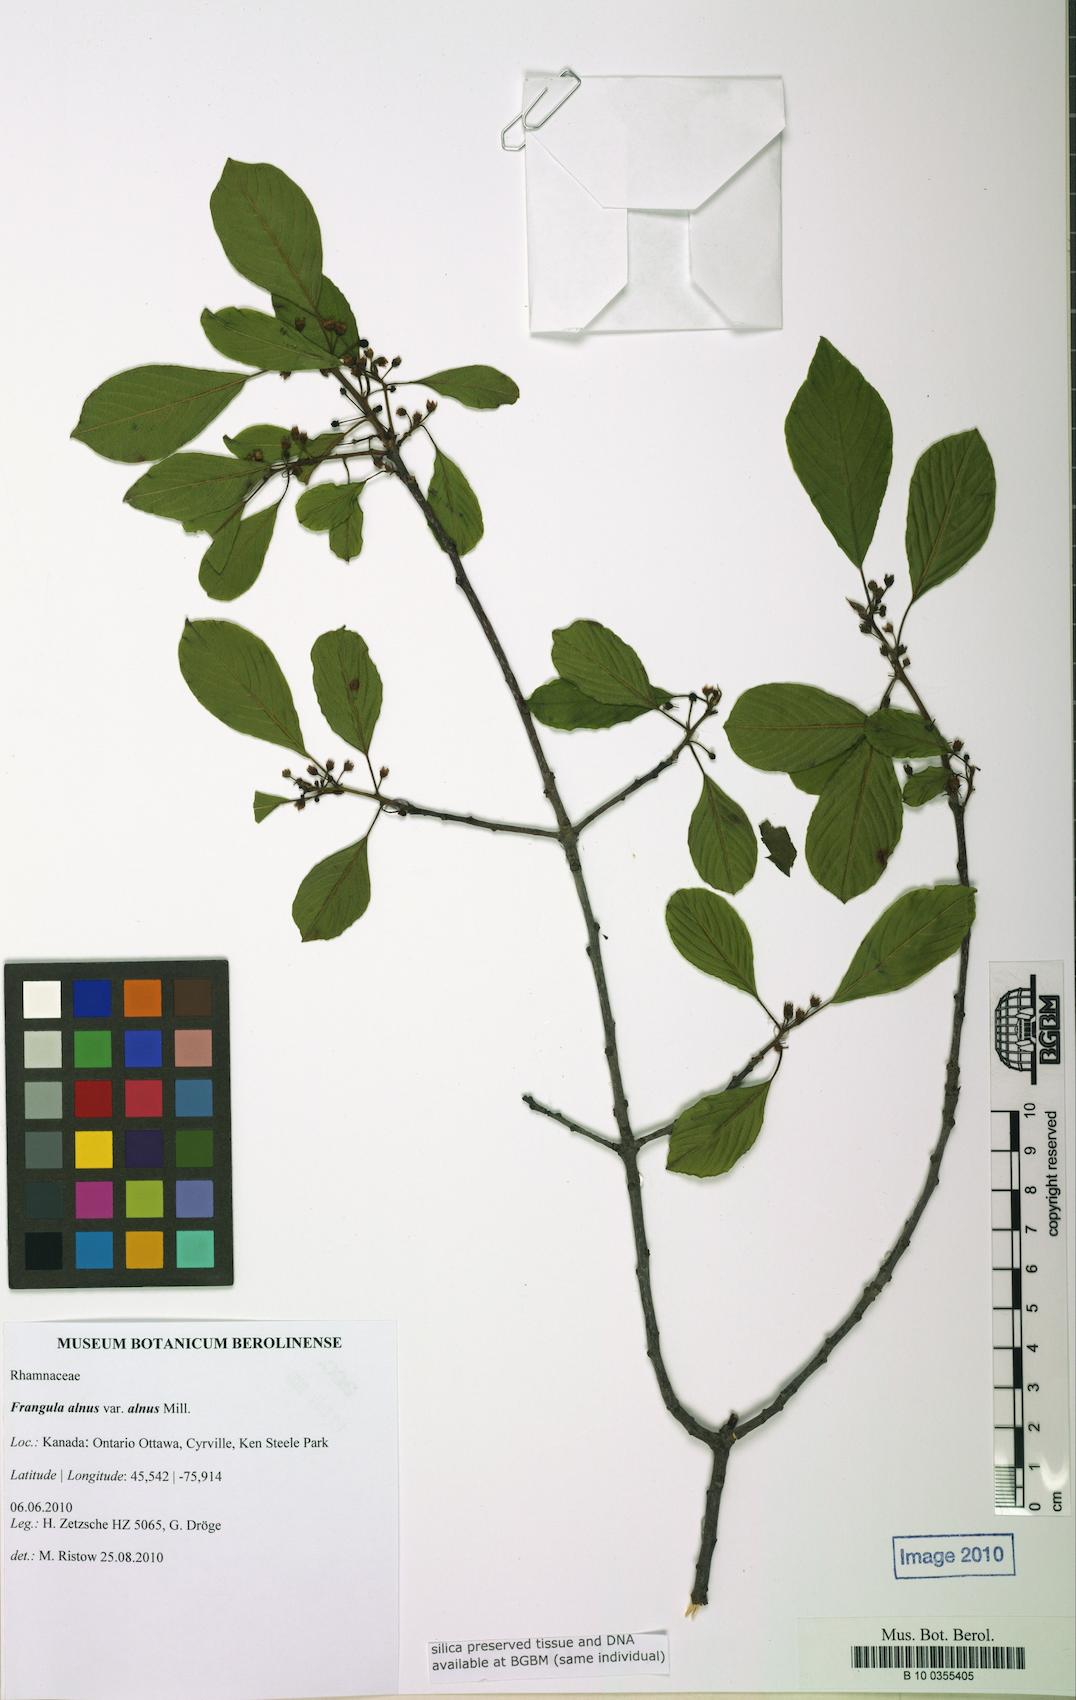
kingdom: Plantae
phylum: Tracheophyta
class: Magnoliopsida
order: Rosales
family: Rhamnaceae
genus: Frangula
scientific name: Frangula alnus
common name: Alder buckthorn
